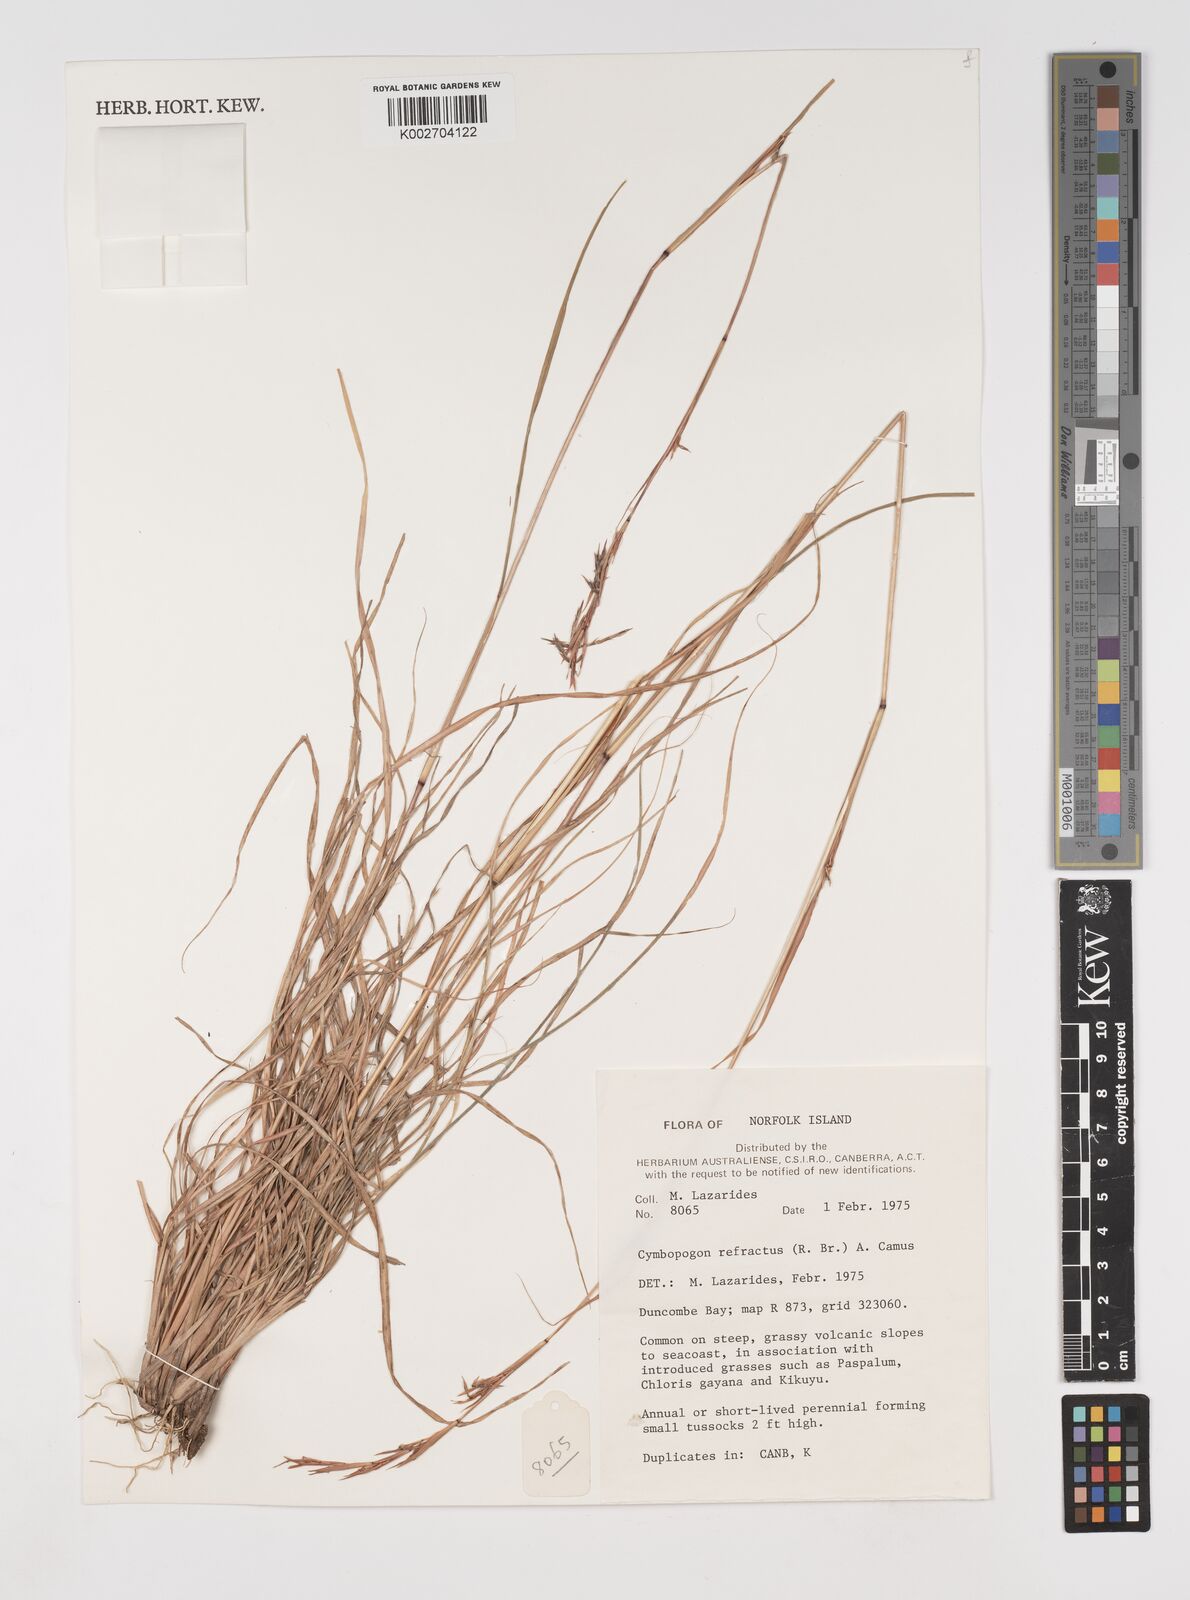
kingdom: Plantae
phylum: Tracheophyta
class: Liliopsida
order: Poales
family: Poaceae
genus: Cymbopogon
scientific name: Cymbopogon refractus
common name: Barbwire grass
